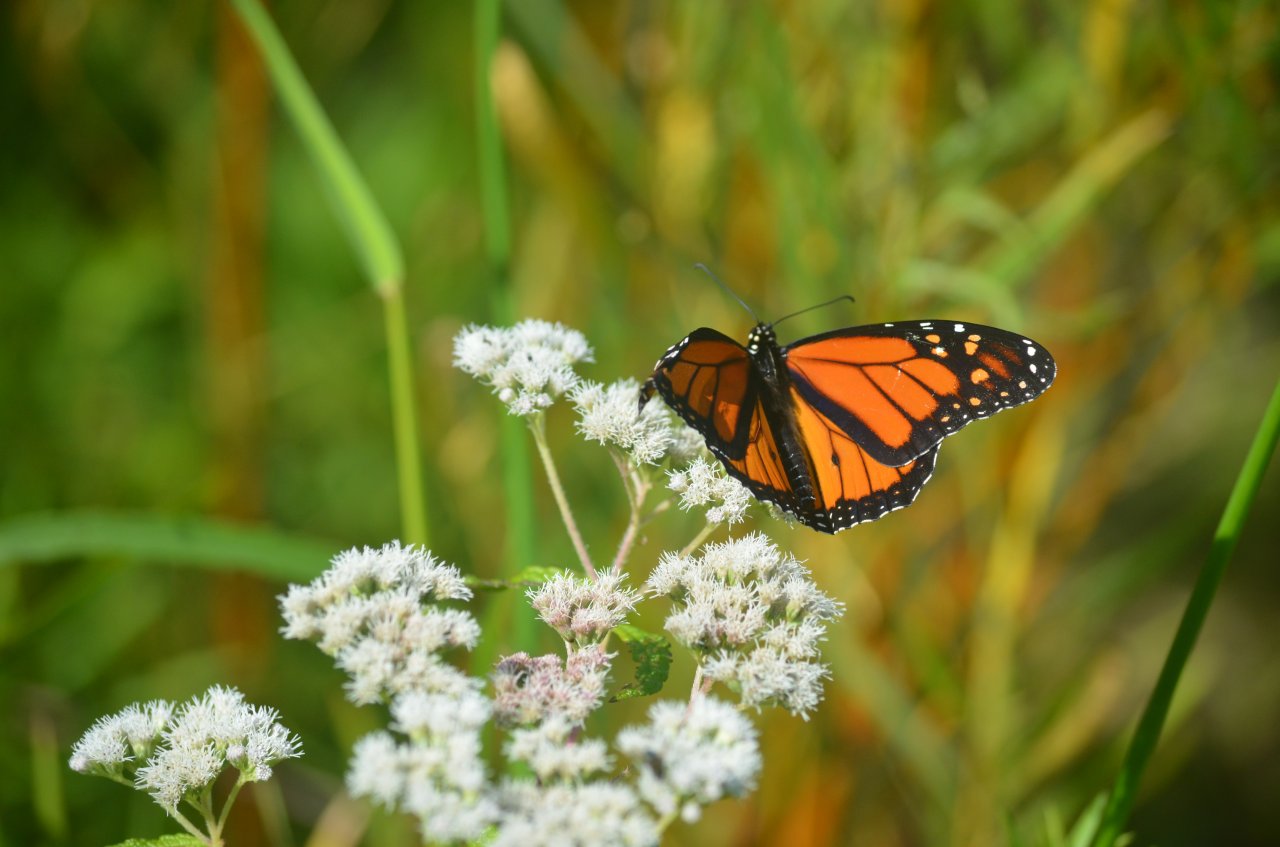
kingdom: Animalia
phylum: Arthropoda
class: Insecta
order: Lepidoptera
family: Nymphalidae
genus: Danaus
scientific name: Danaus plexippus
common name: Monarch
